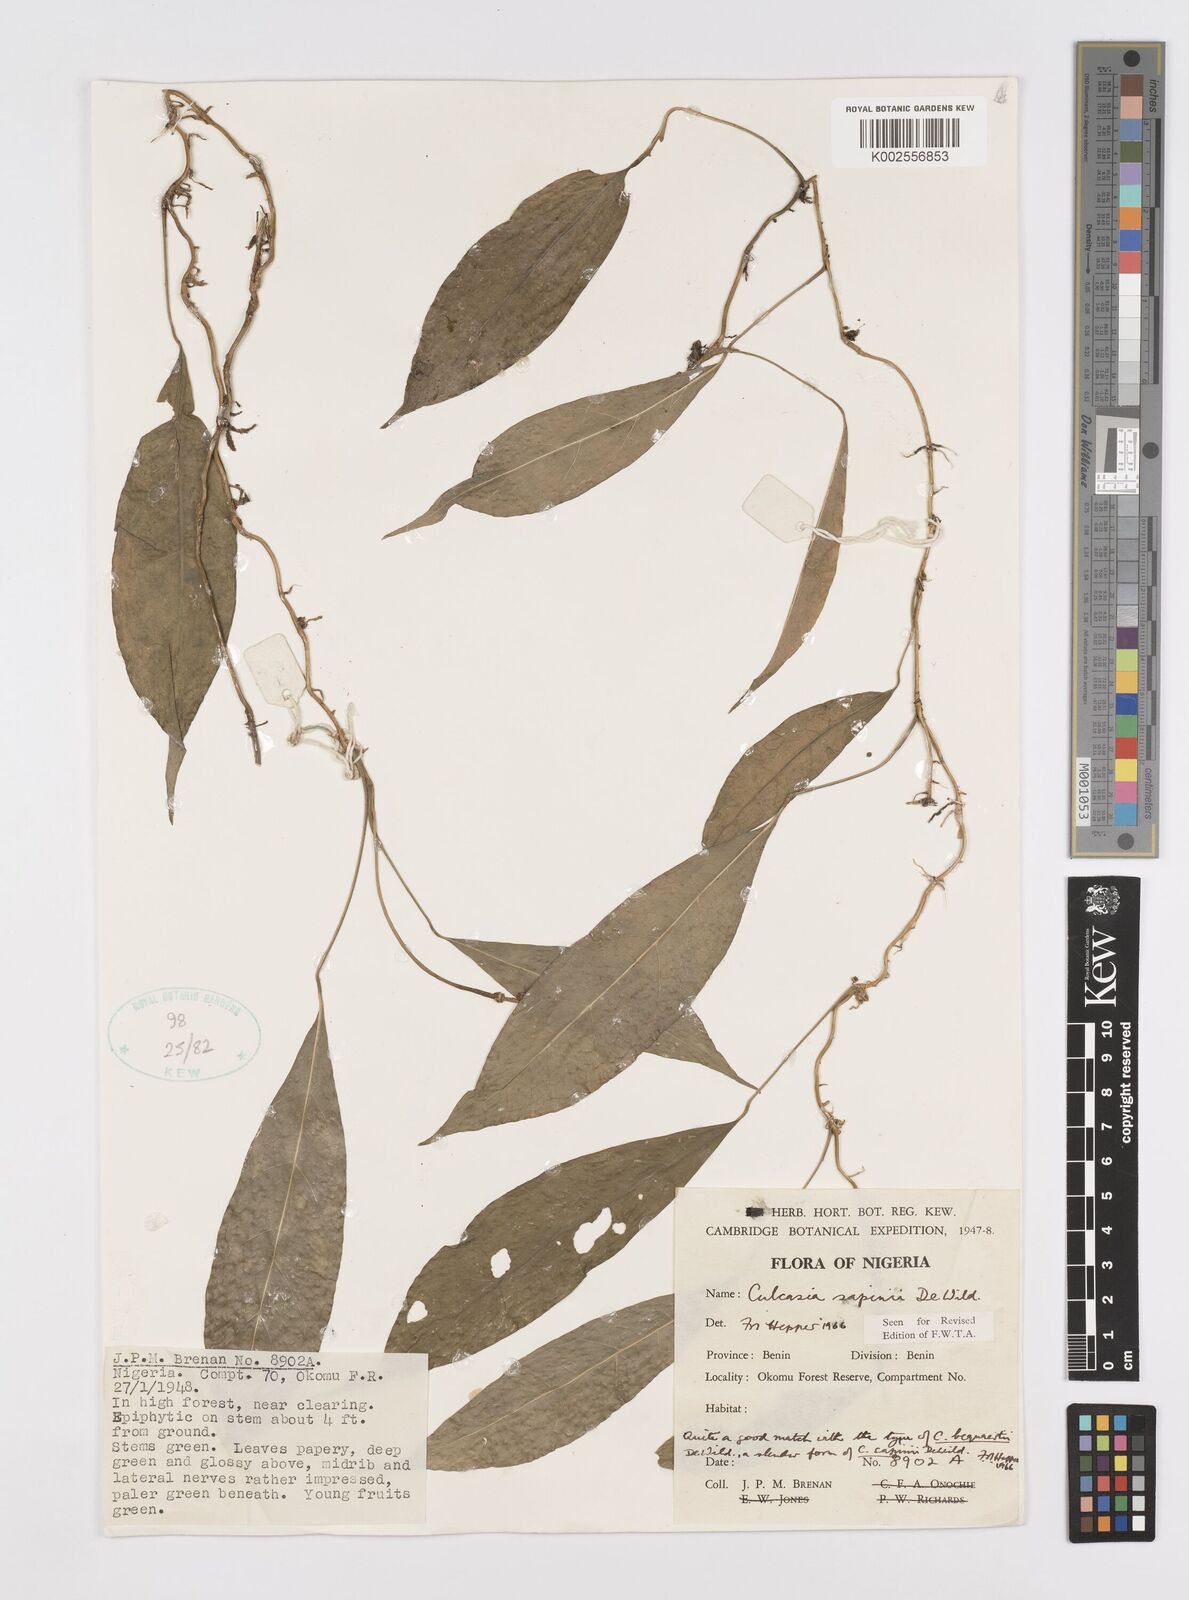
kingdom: Plantae
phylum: Tracheophyta
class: Liliopsida
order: Alismatales
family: Araceae
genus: Culcasia
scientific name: Culcasia seretii
